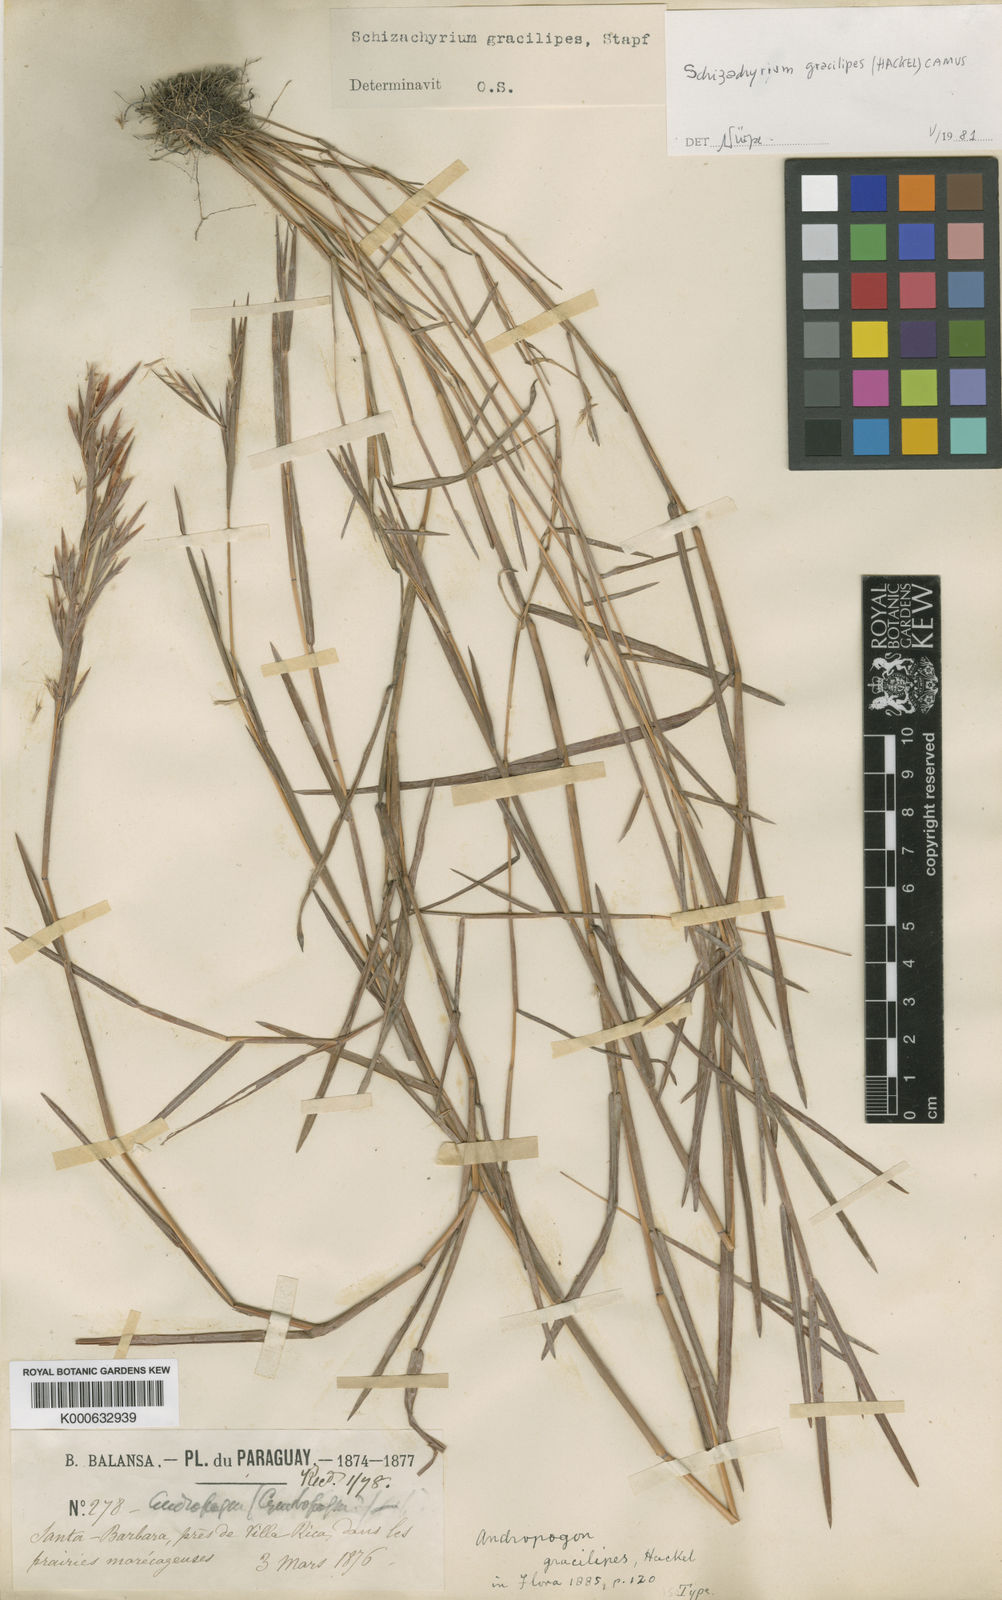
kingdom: Plantae
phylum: Tracheophyta
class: Liliopsida
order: Poales
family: Poaceae
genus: Schizachyrium
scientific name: Schizachyrium gracilipes
